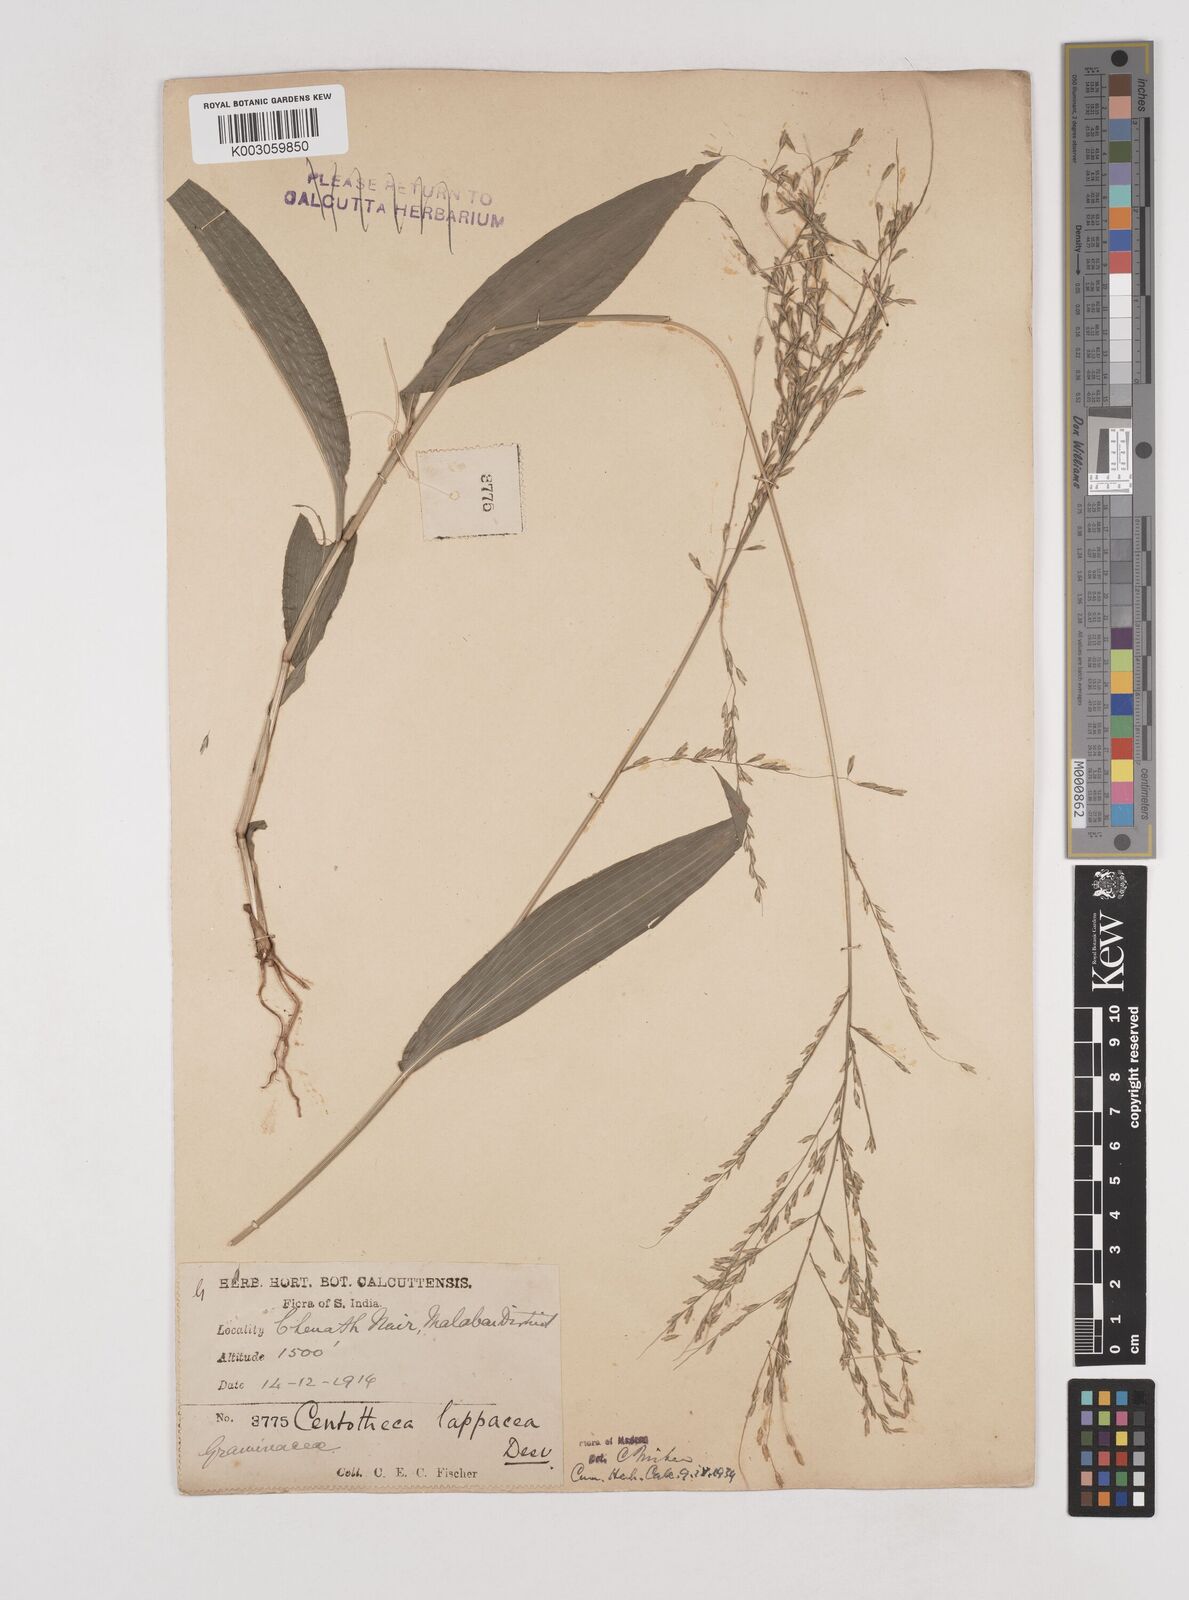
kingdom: Plantae
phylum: Tracheophyta
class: Liliopsida
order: Poales
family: Poaceae
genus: Centotheca
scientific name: Centotheca lappacea
